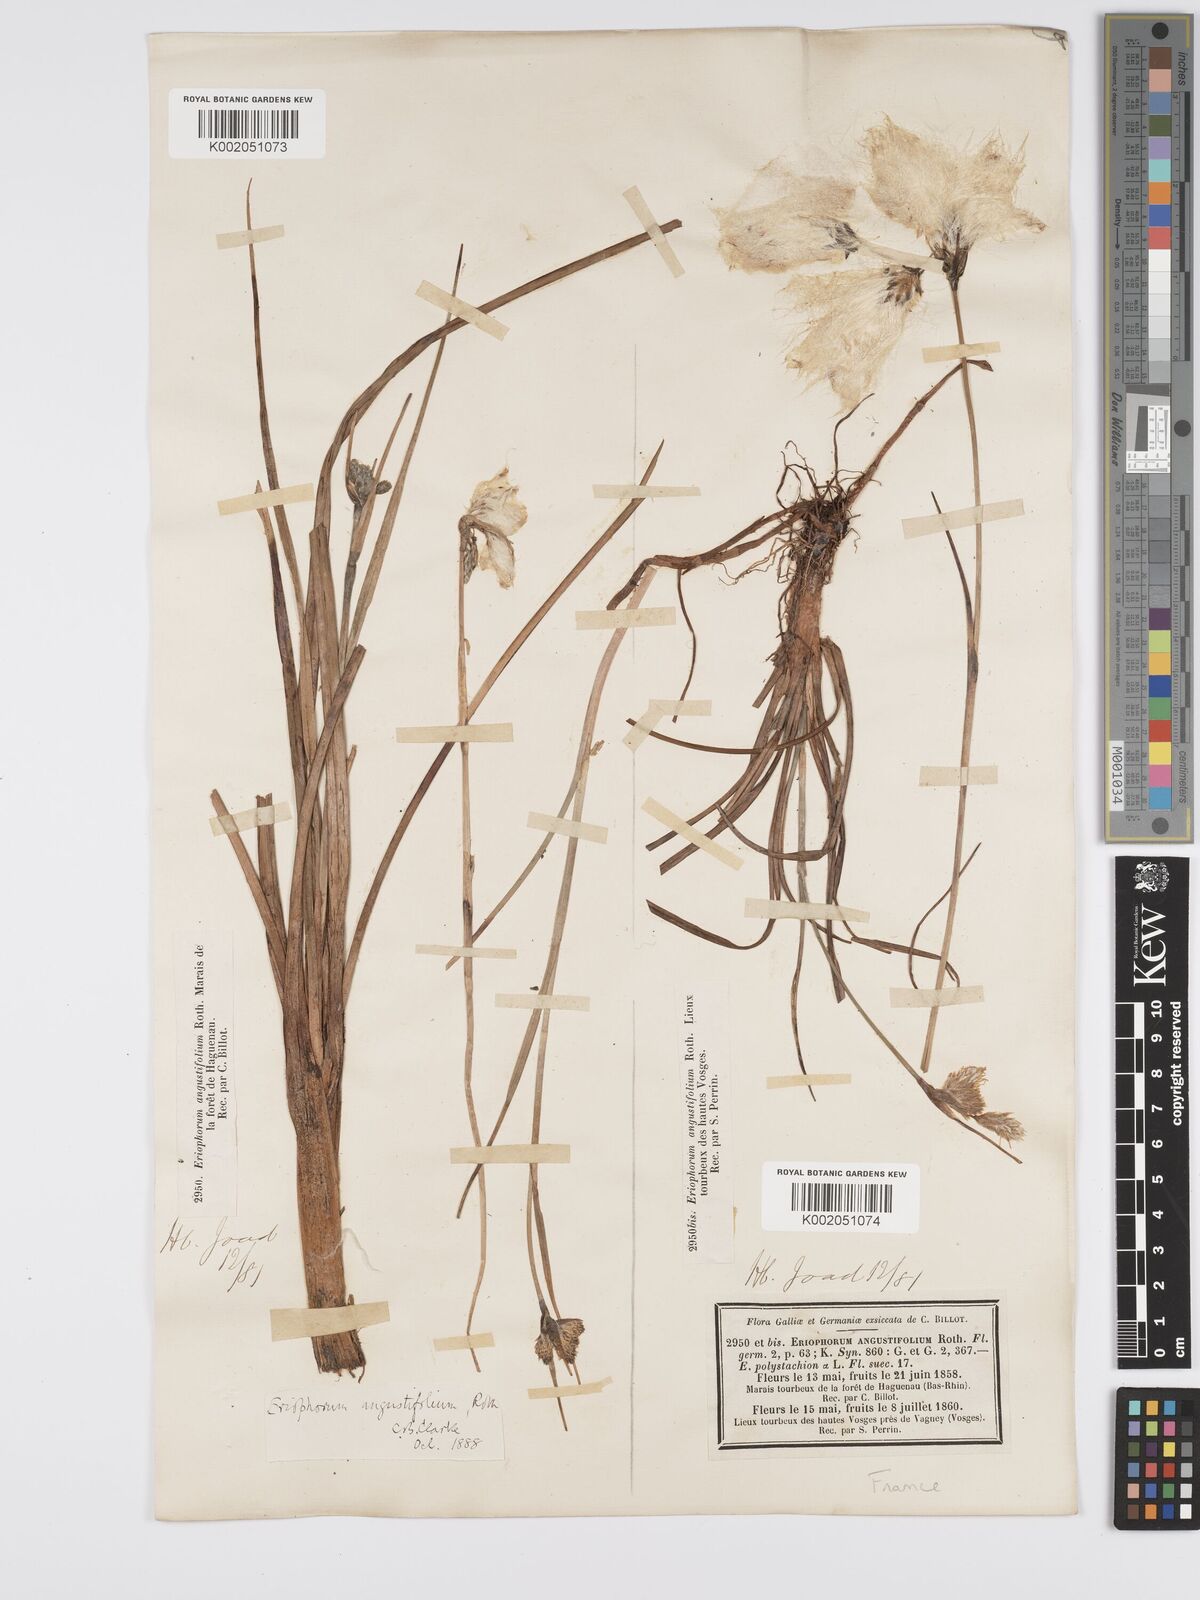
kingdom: Plantae
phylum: Tracheophyta
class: Liliopsida
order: Poales
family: Cyperaceae
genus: Eriophorum
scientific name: Eriophorum angustifolium
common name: Common cottongrass
